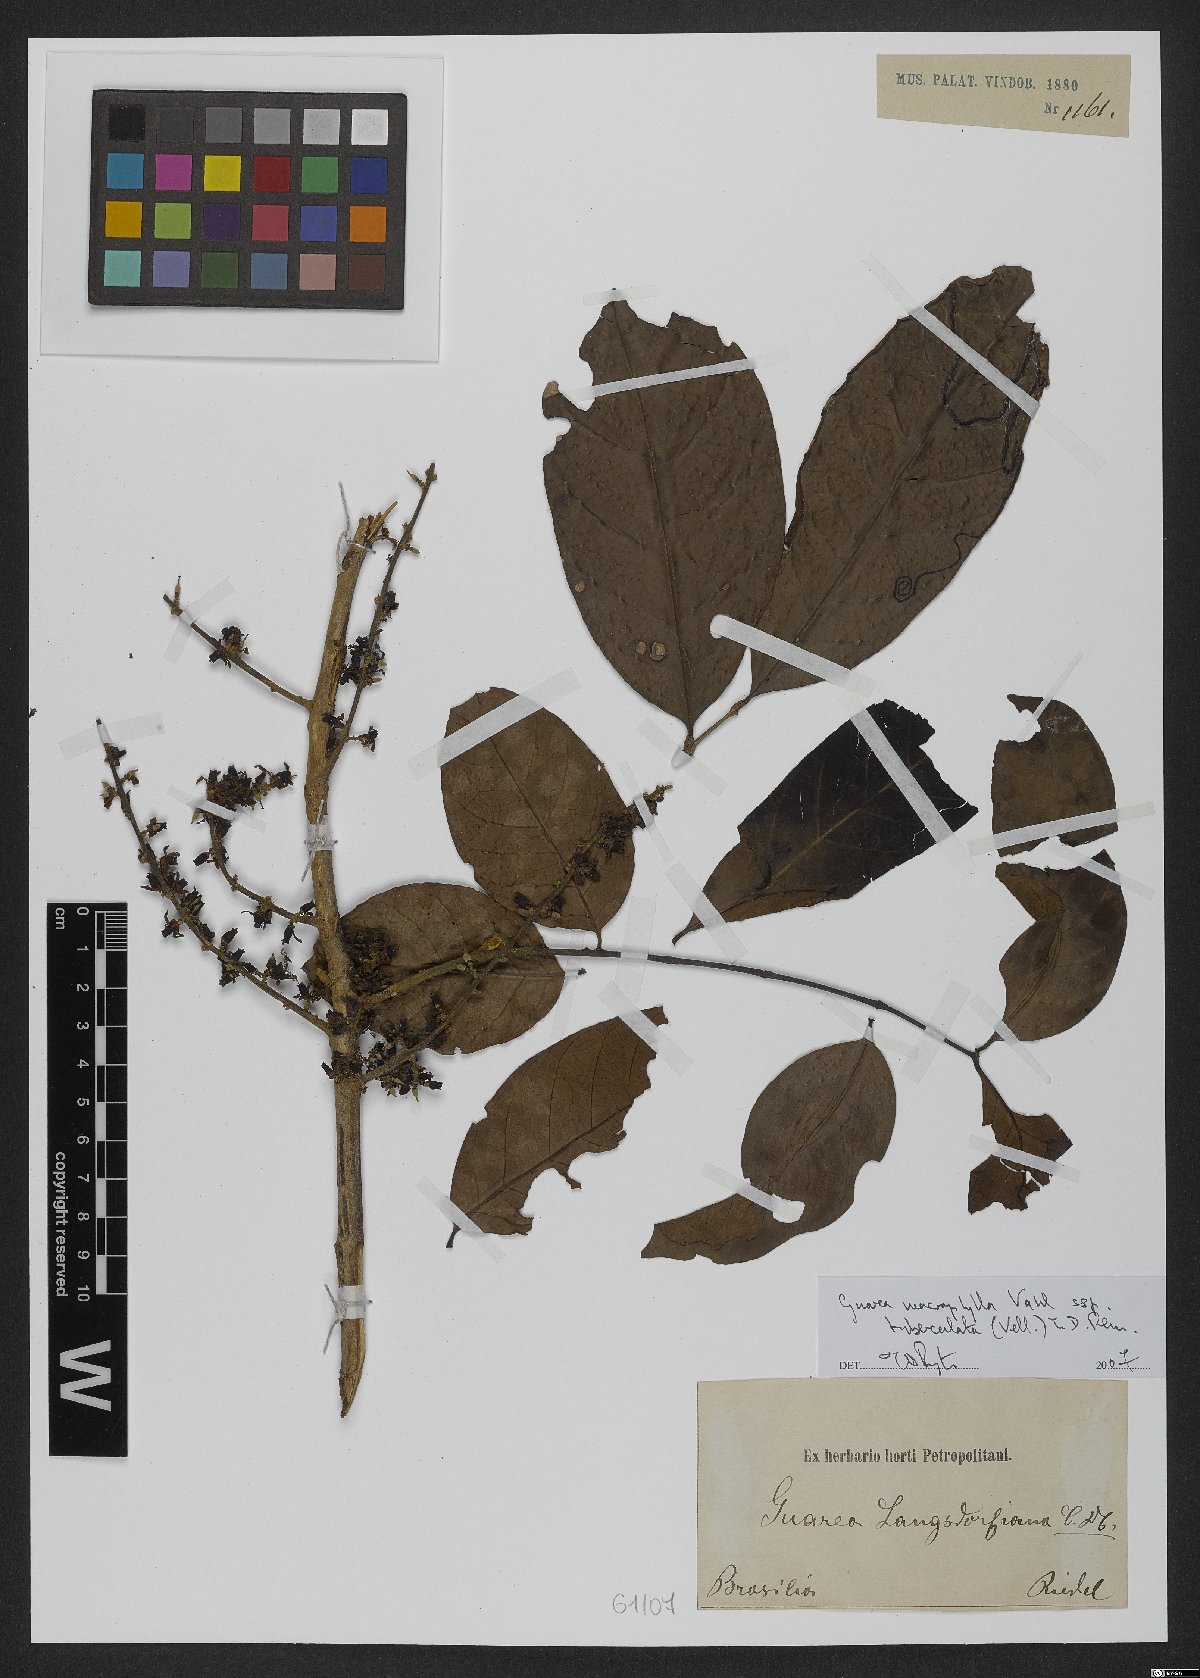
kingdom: Plantae
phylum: Tracheophyta
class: Magnoliopsida
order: Sapindales
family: Meliaceae
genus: Guarea
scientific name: Guarea macrophylla
